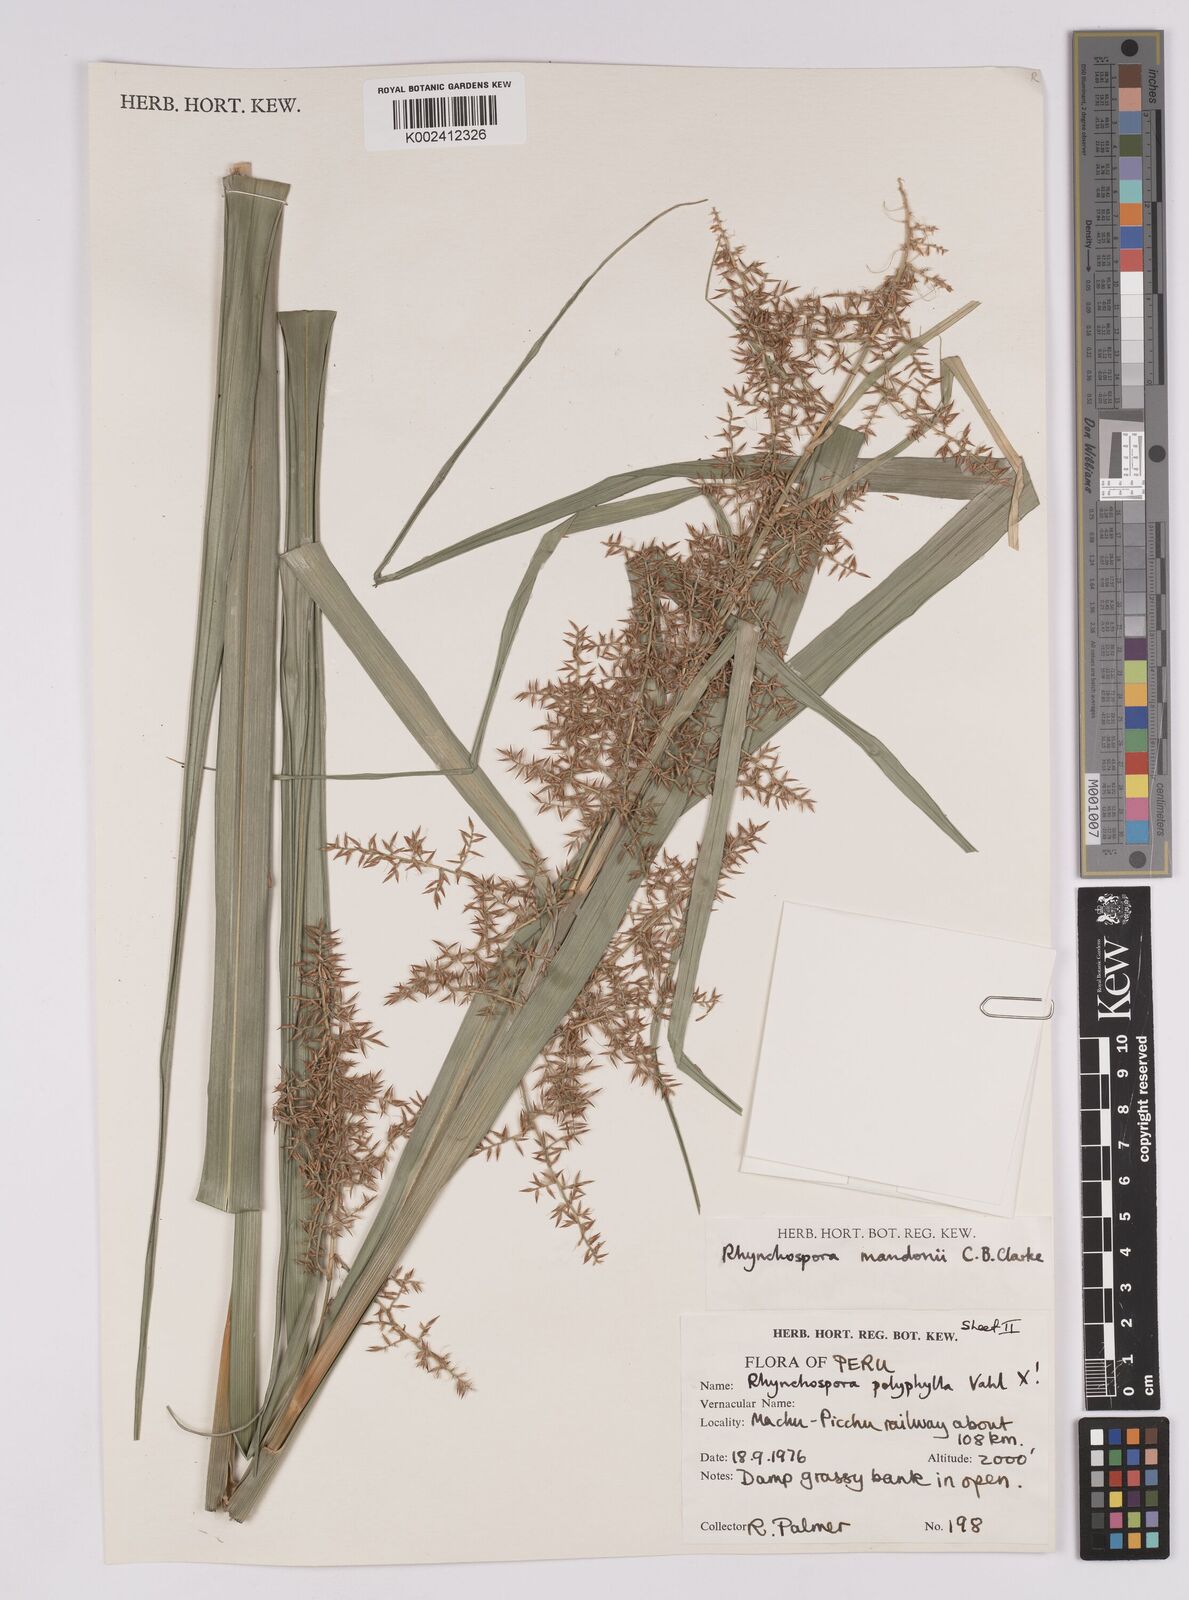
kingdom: Plantae
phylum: Tracheophyta
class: Liliopsida
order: Poales
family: Cyperaceae
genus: Rhynchospora
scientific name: Rhynchospora mandonii
